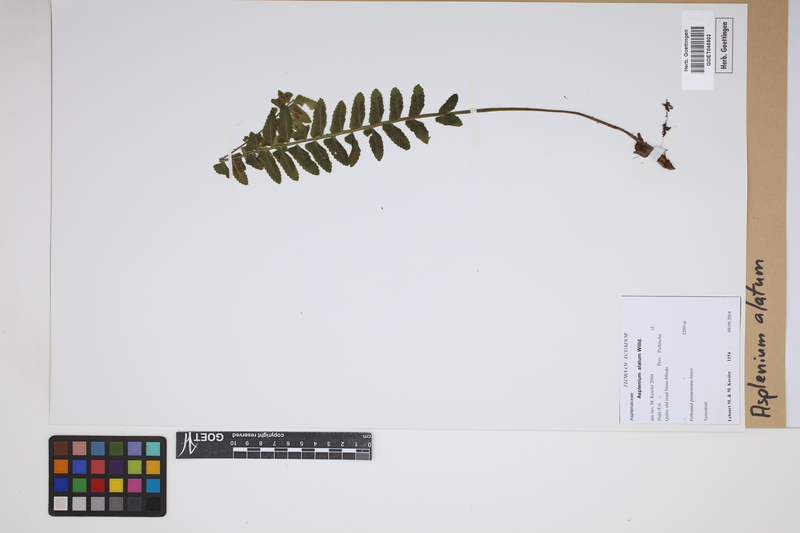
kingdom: Plantae
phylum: Tracheophyta
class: Polypodiopsida
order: Polypodiales
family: Aspleniaceae
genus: Asplenium
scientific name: Asplenium alatum
